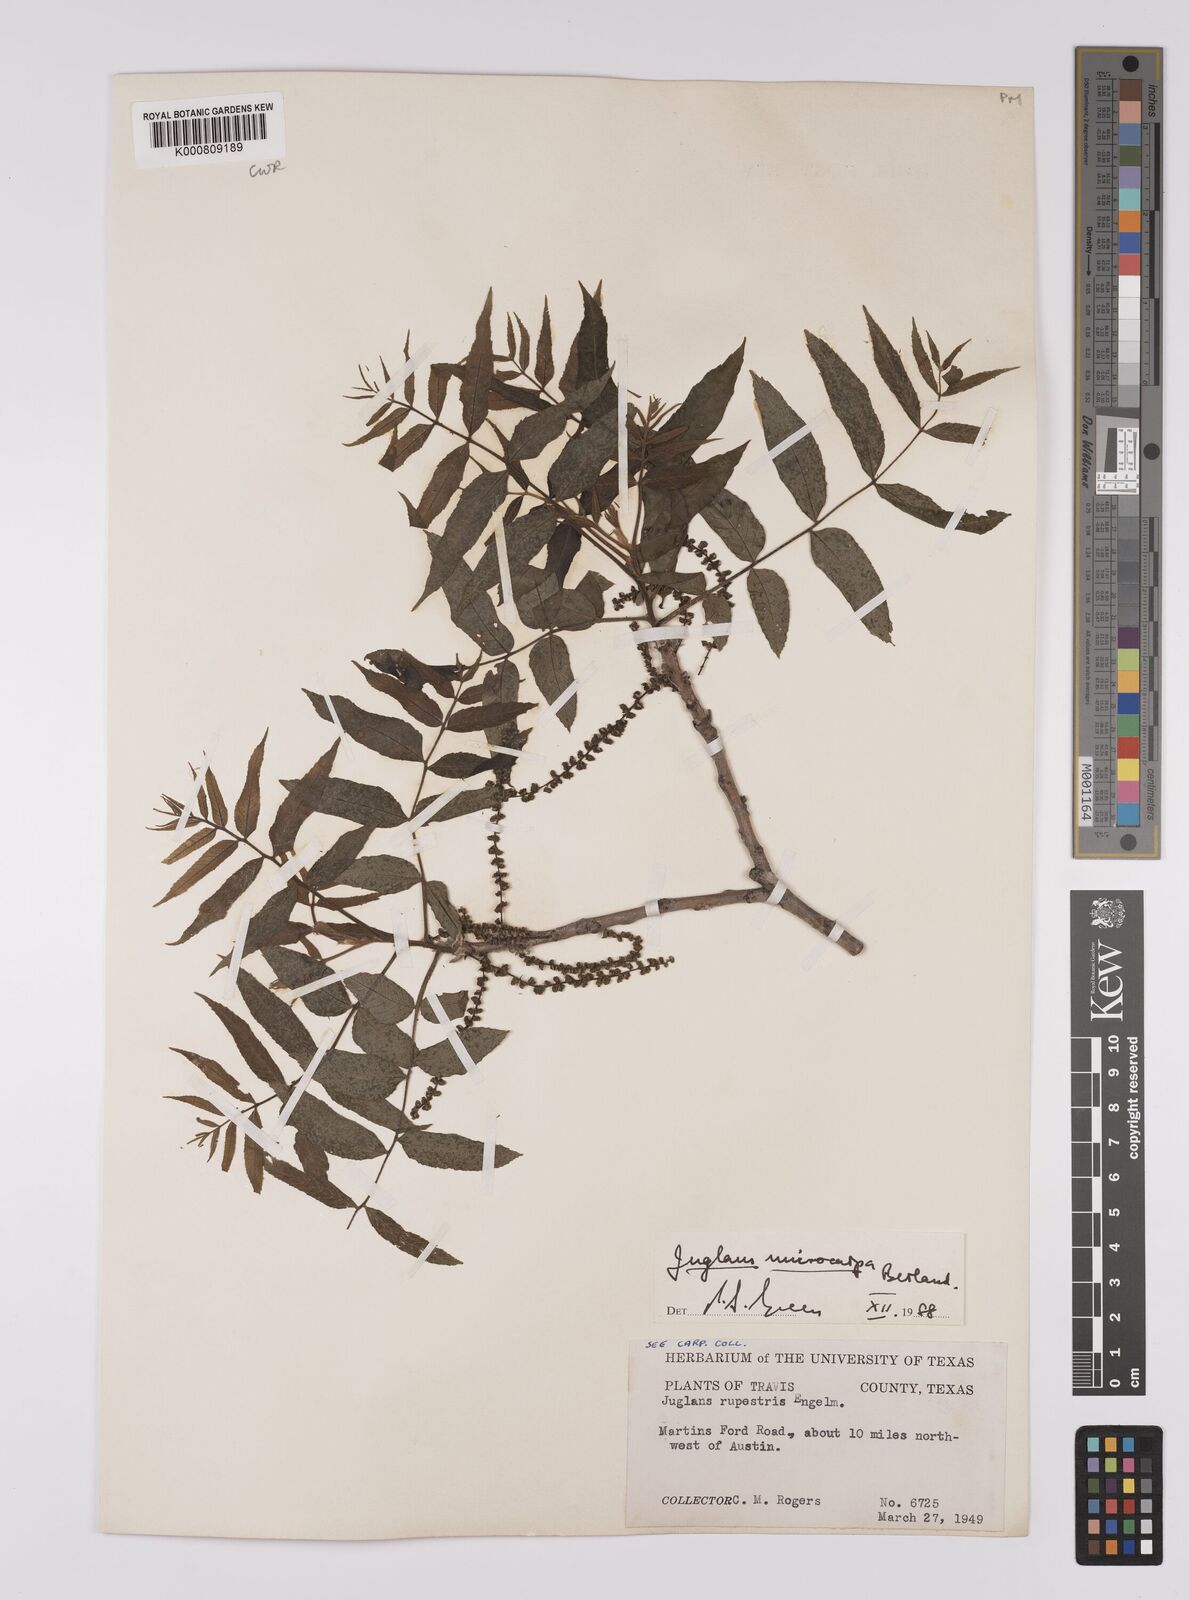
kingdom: Plantae
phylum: Tracheophyta
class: Magnoliopsida
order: Fagales
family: Juglandaceae
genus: Juglans
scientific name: Juglans microcarpa
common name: Texas walnut
